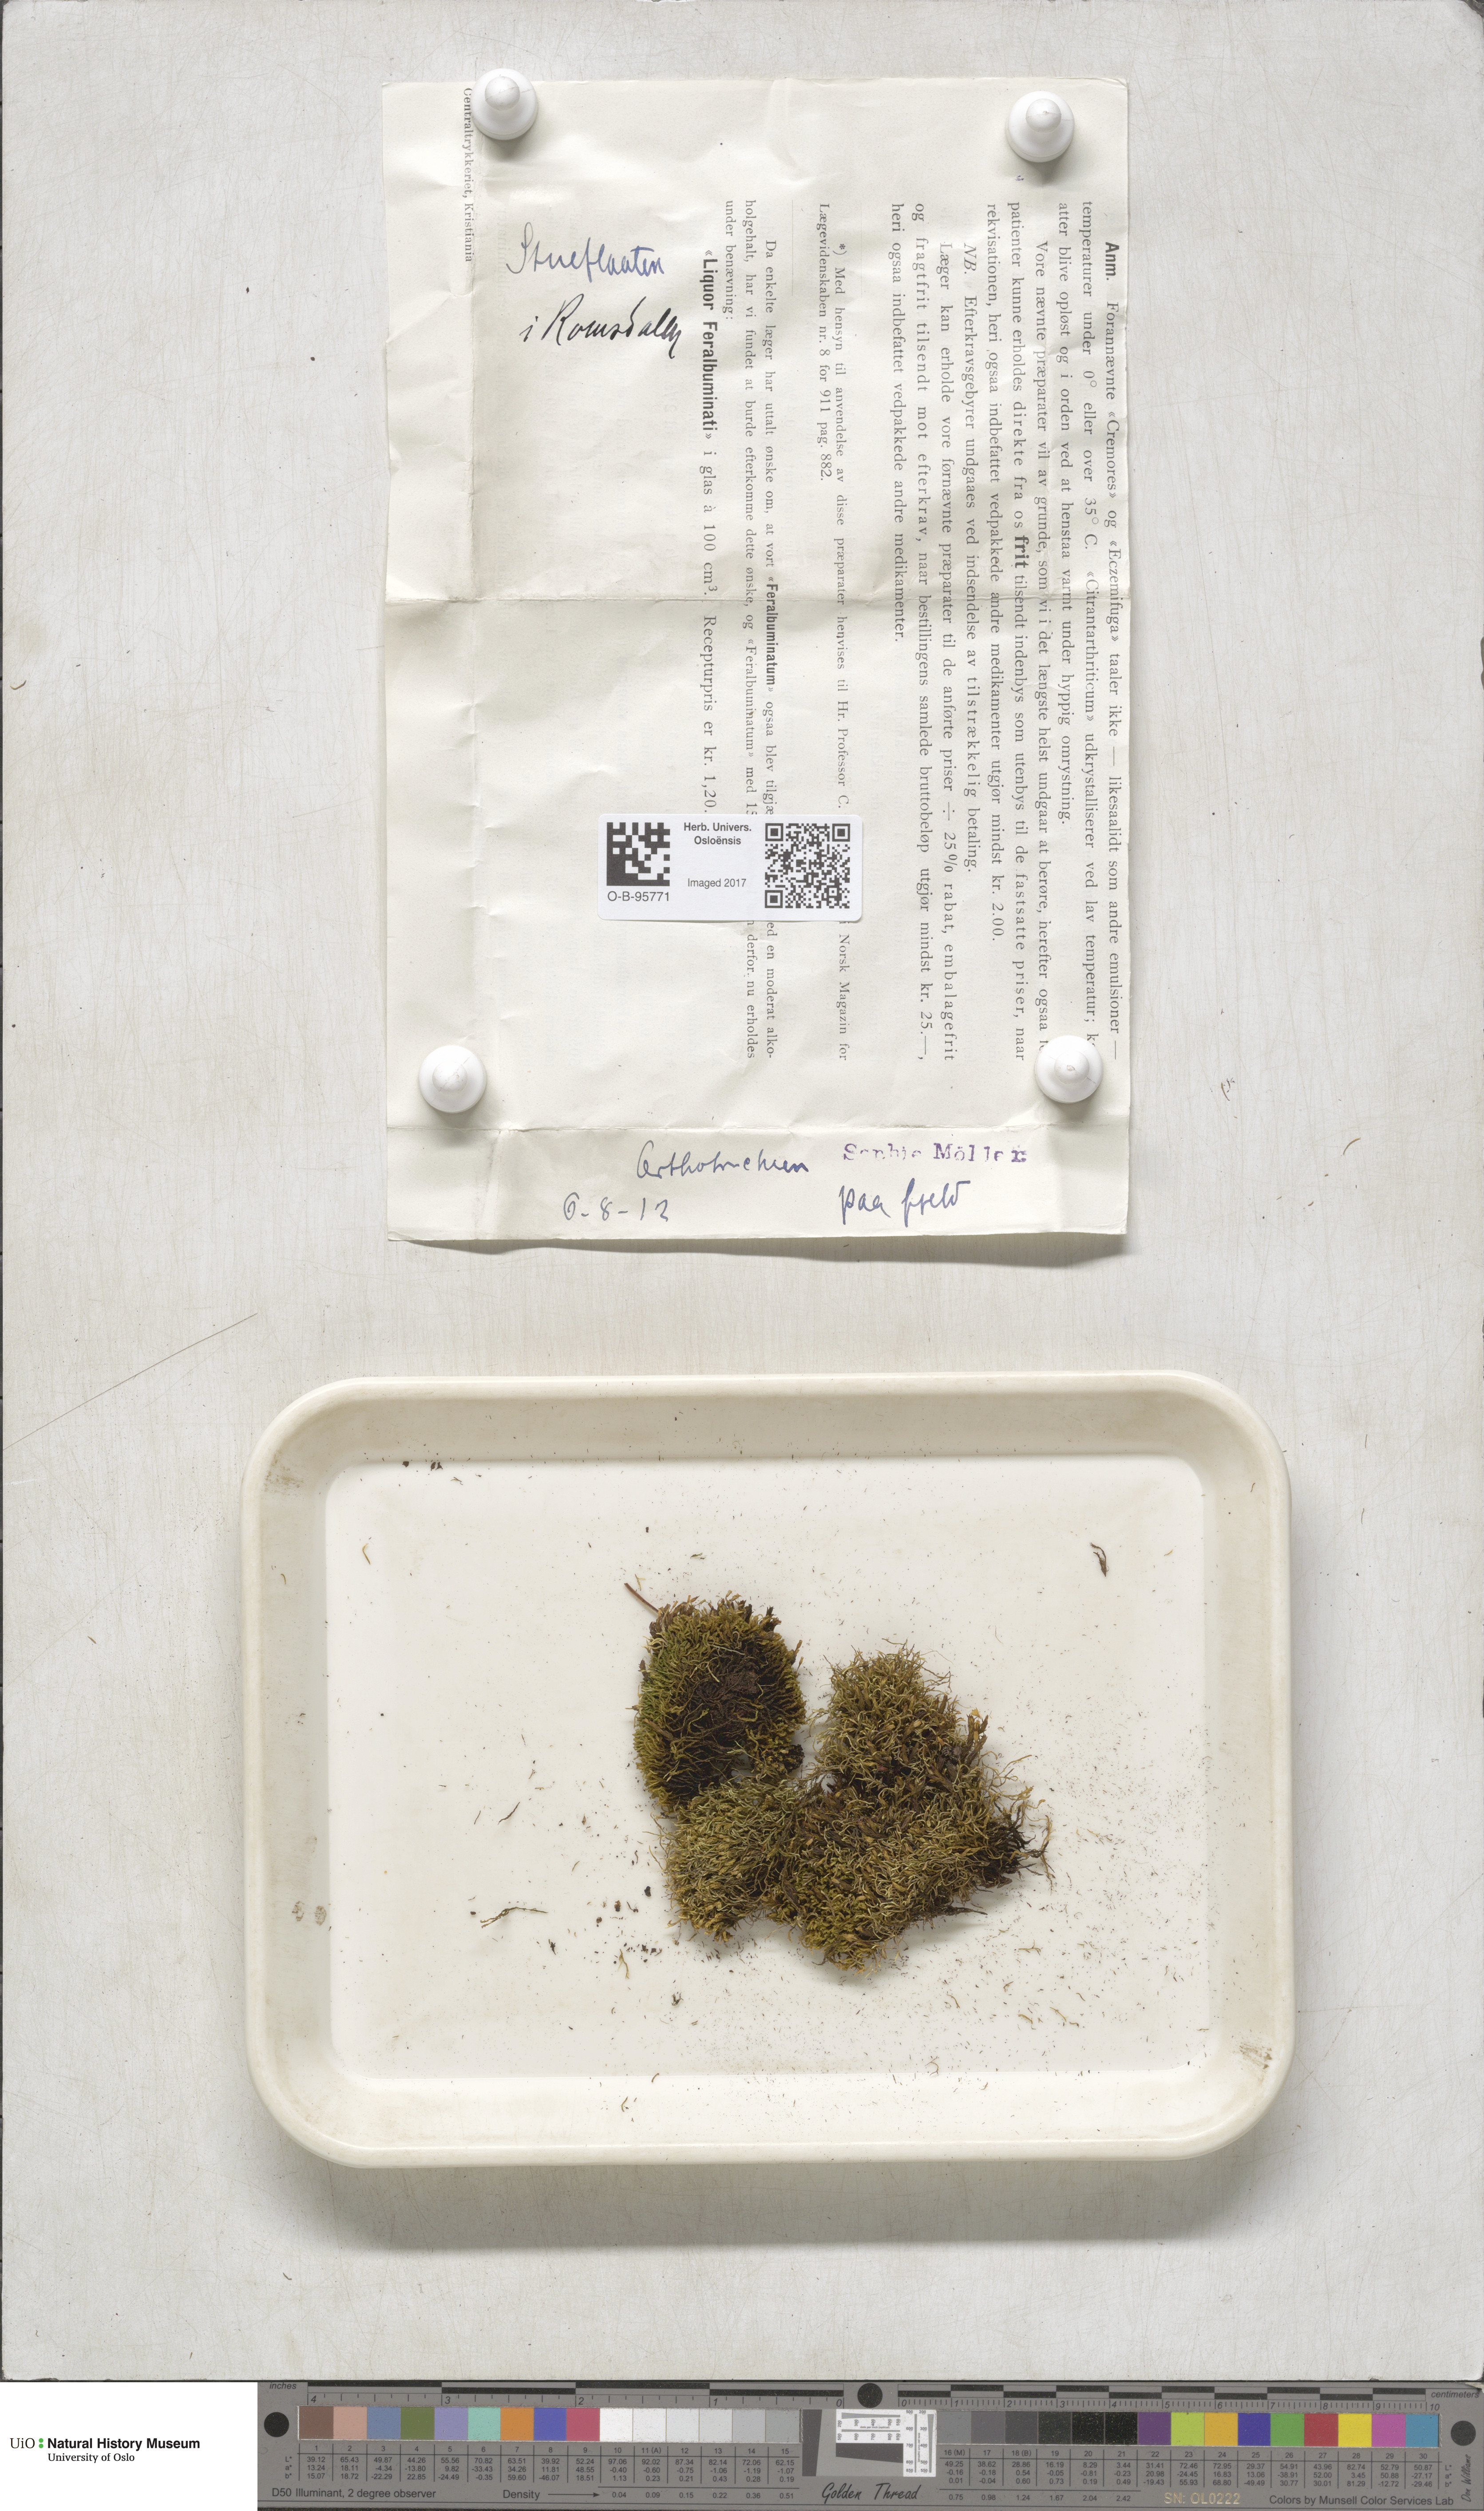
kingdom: Plantae
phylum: Bryophyta
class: Bryopsida
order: Orthotrichales
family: Orthotrichaceae
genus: Orthotrichum
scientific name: Orthotrichum
